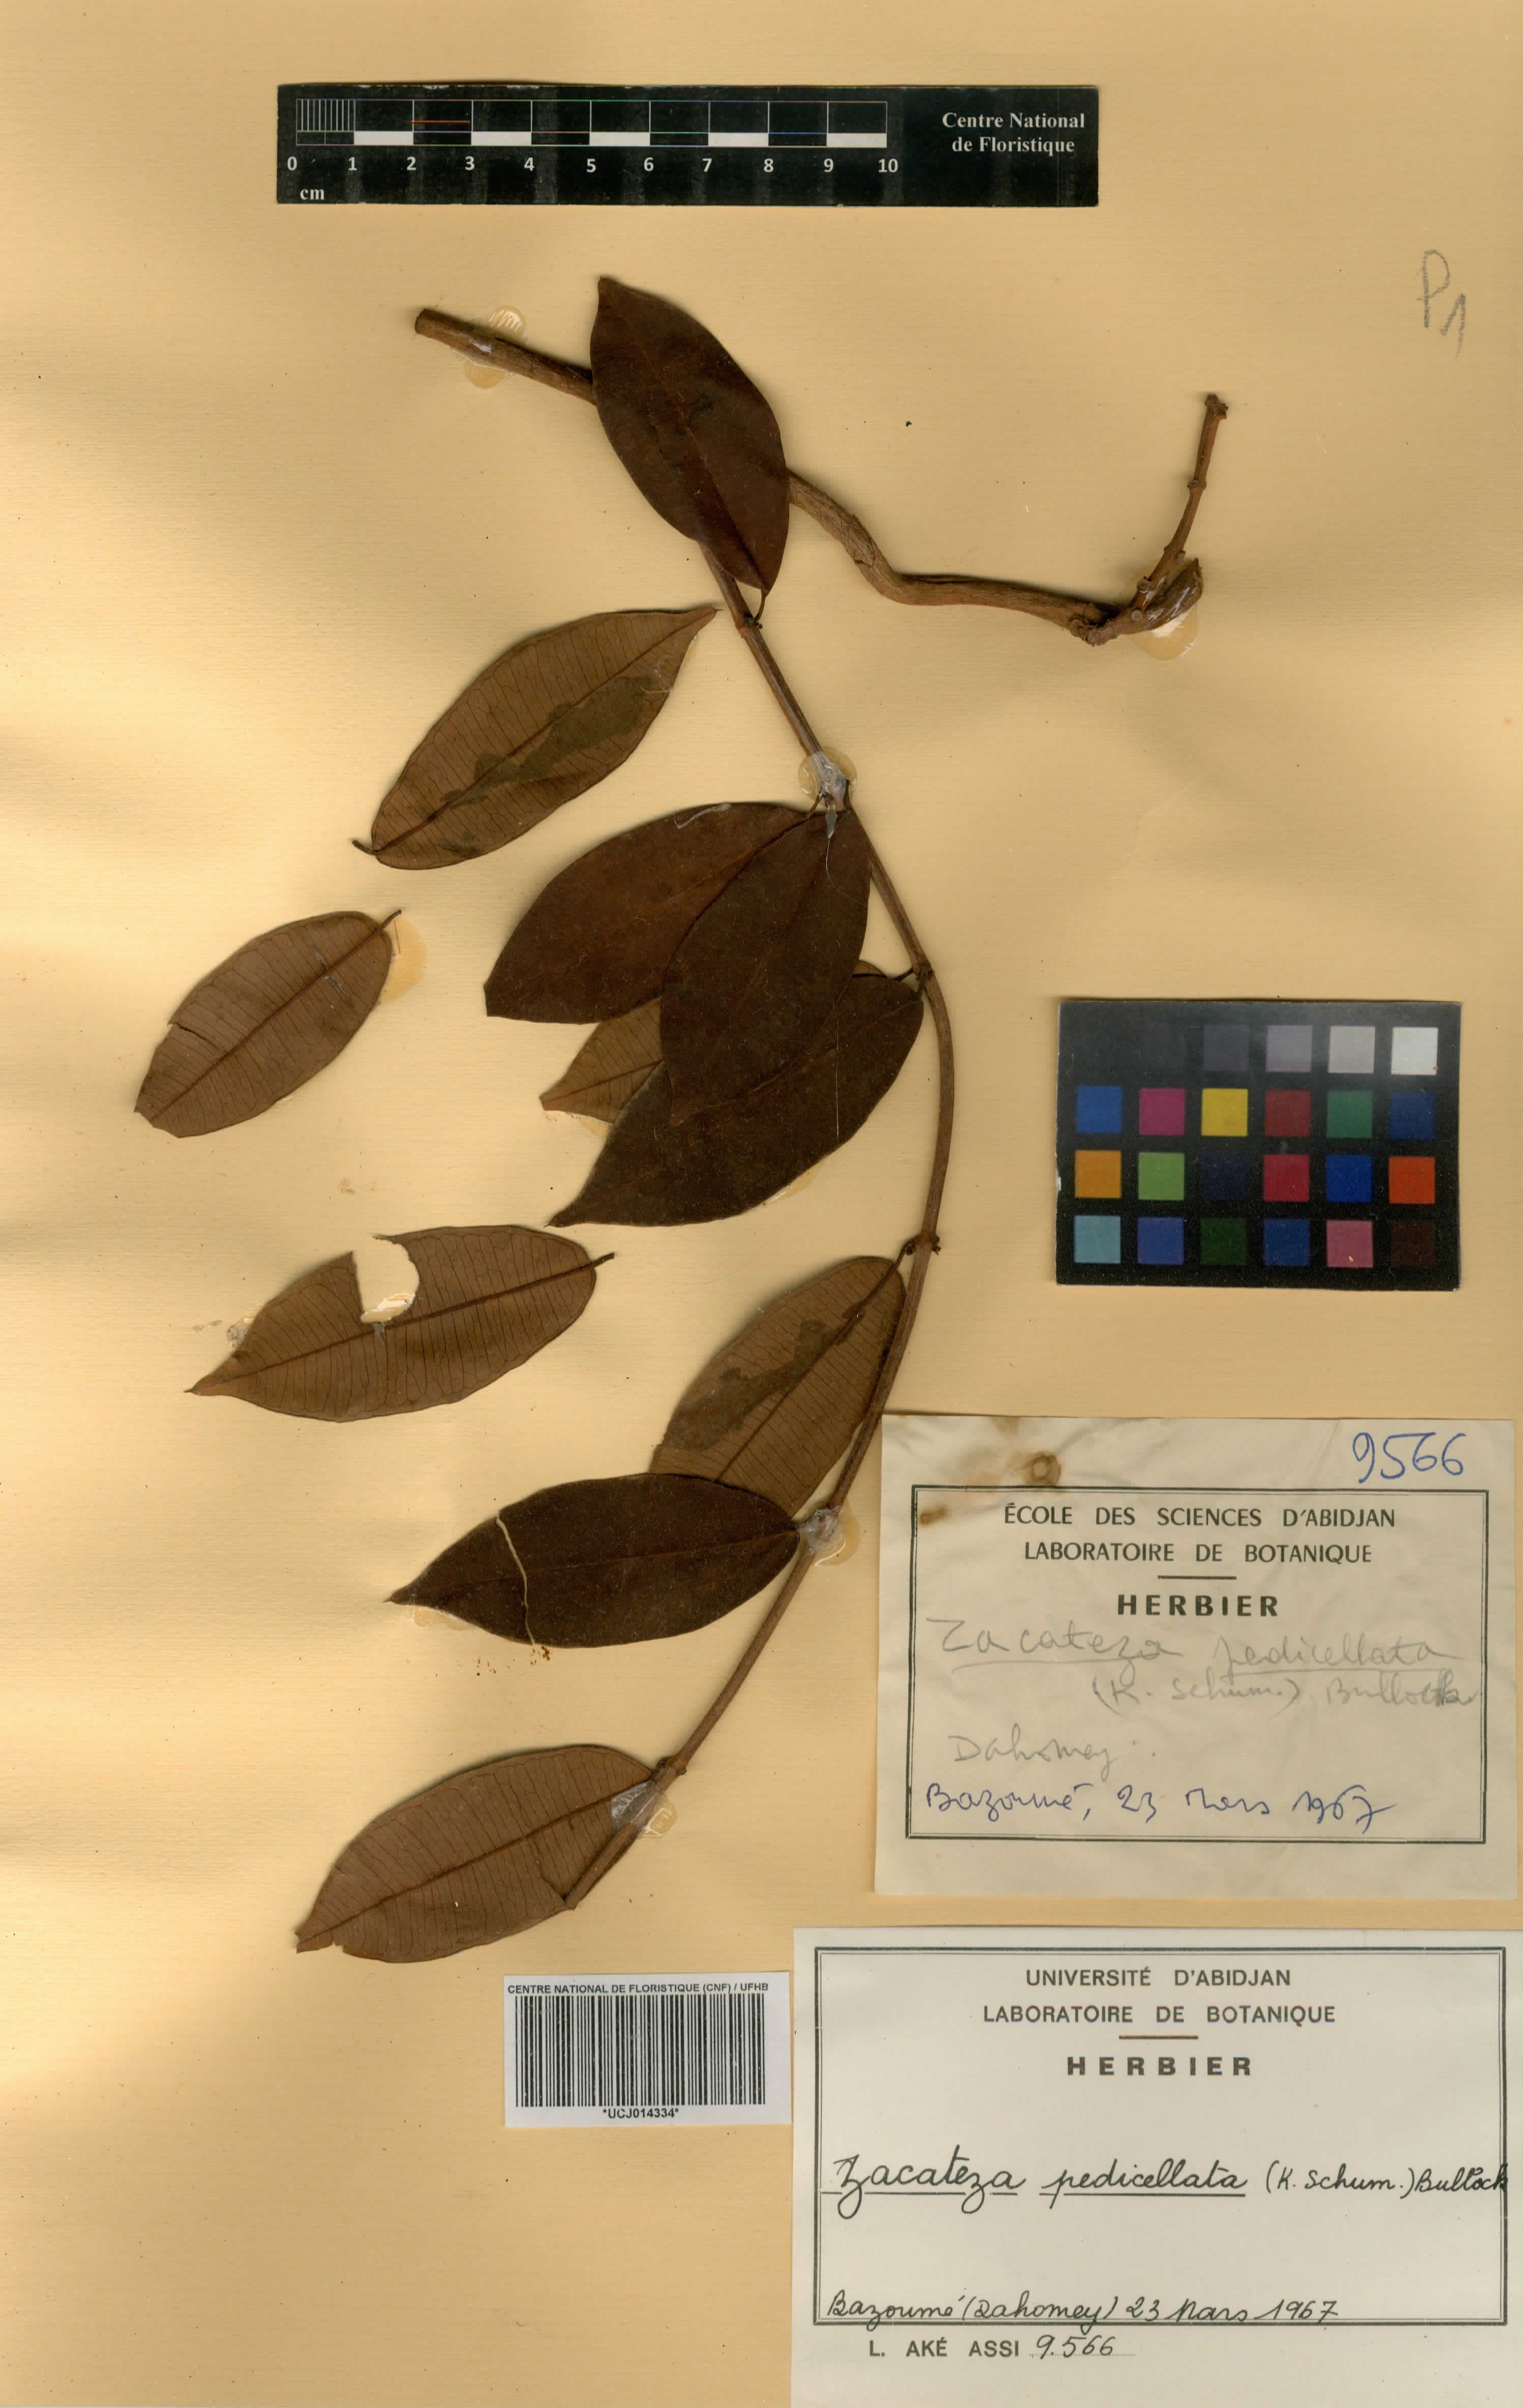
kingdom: Plantae
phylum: Tracheophyta
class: Magnoliopsida
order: Gentianales
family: Apocynaceae
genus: Zacateza
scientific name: Zacateza pedicellata
